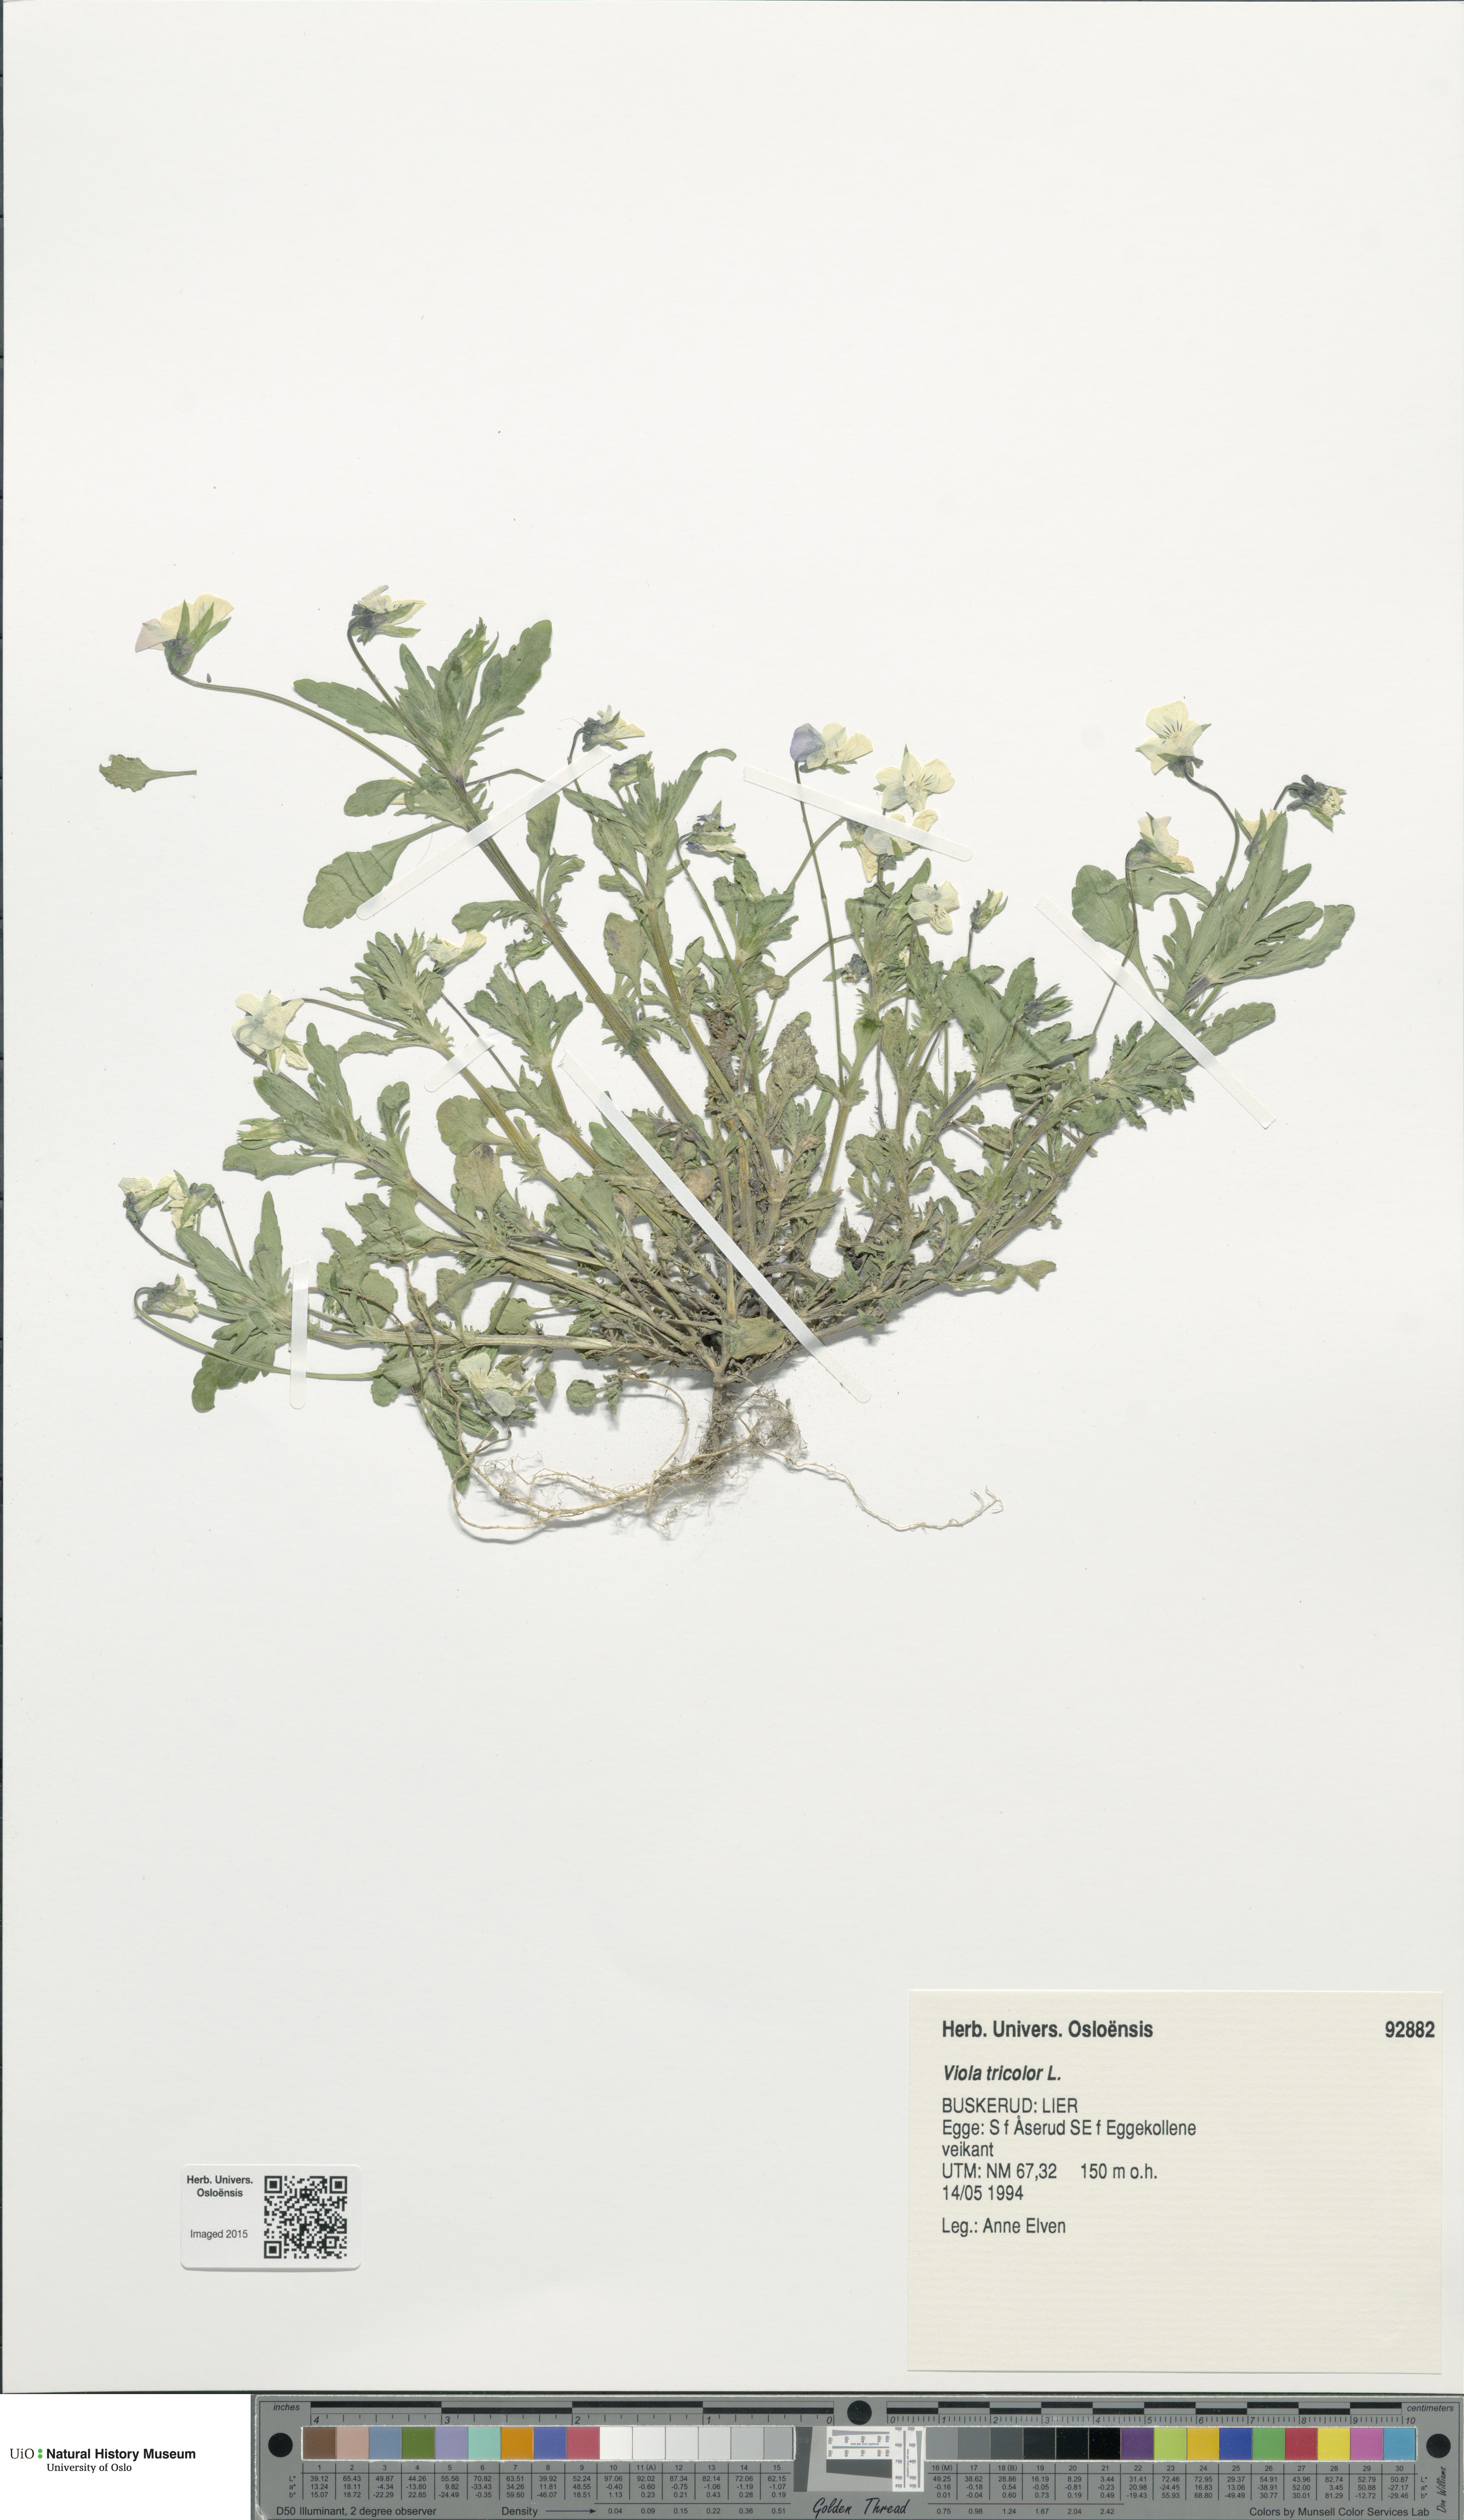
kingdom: Plantae
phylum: Tracheophyta
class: Magnoliopsida
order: Malpighiales
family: Violaceae
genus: Viola
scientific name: Viola tricolor
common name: Pansy
